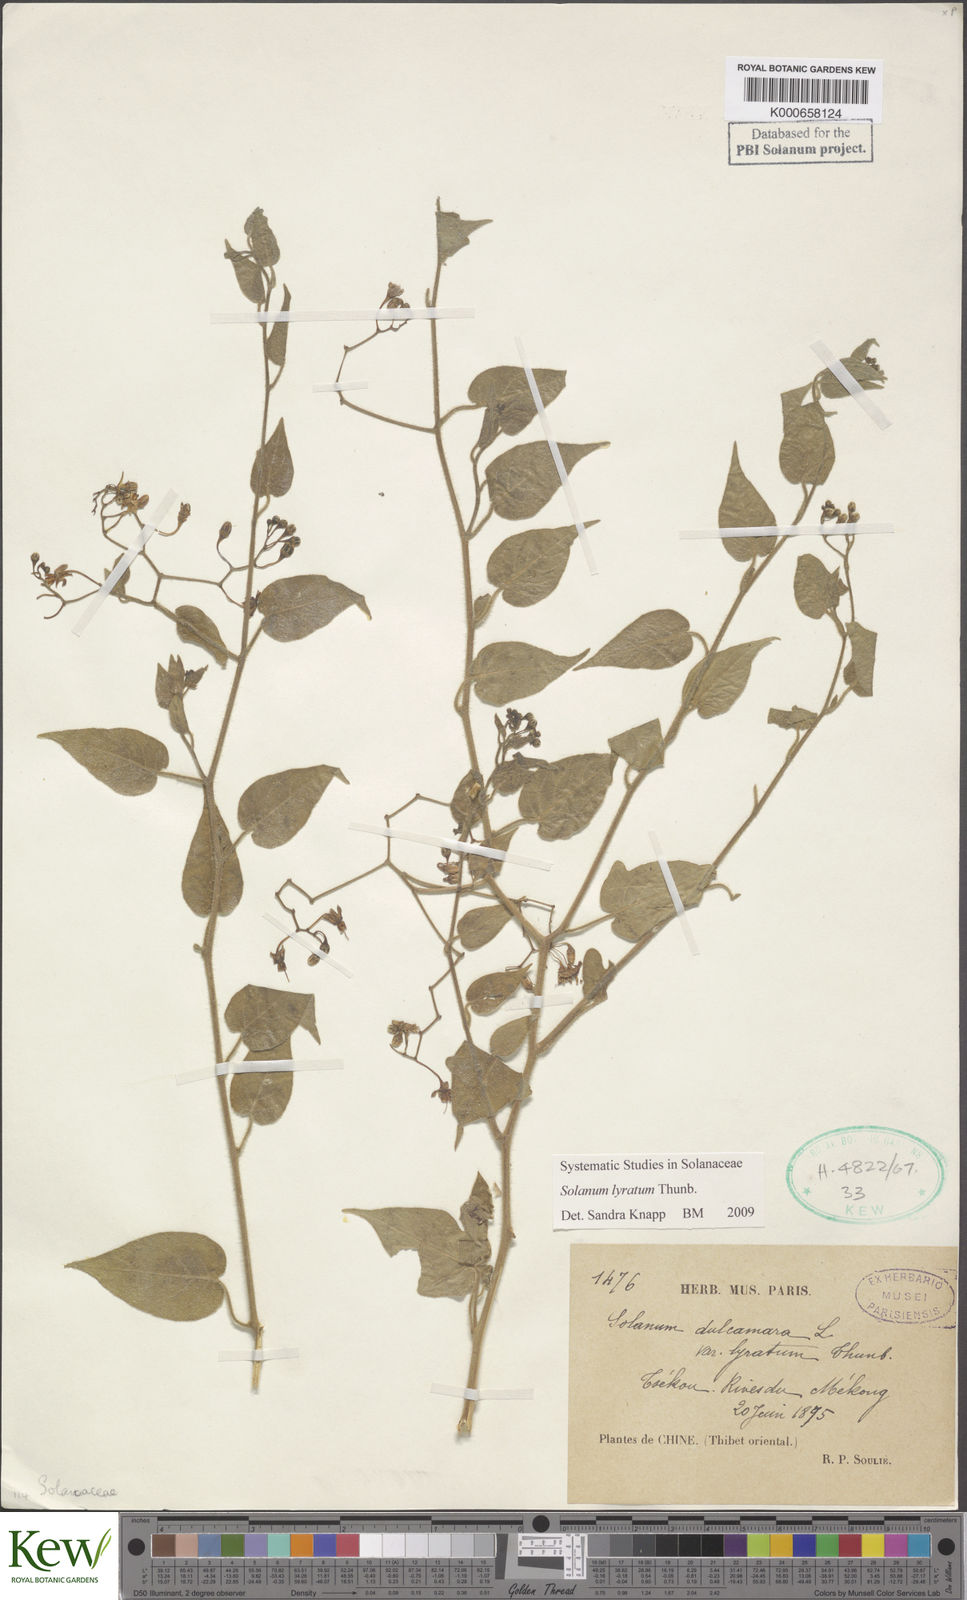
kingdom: Plantae
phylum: Tracheophyta
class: Magnoliopsida
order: Solanales
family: Solanaceae
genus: Solanum
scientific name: Solanum lyratum
